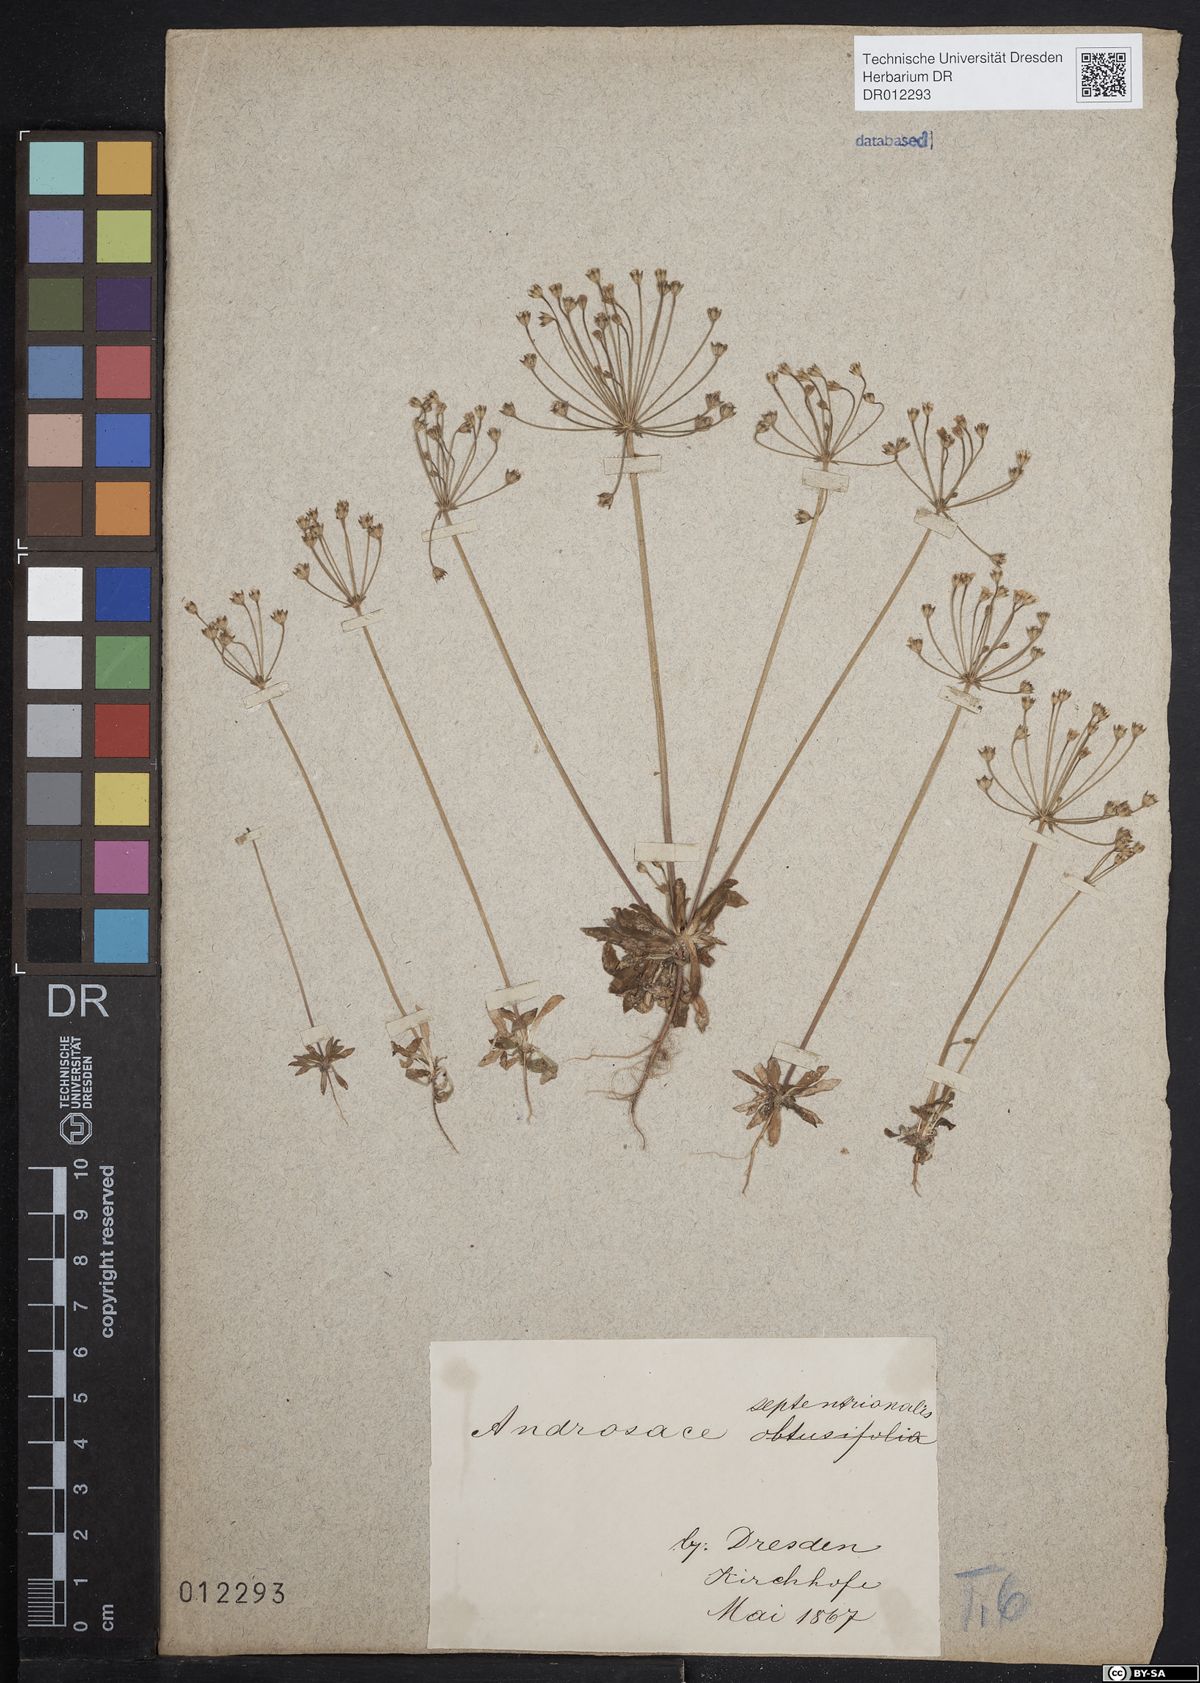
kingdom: Plantae
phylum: Tracheophyta
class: Magnoliopsida
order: Ericales
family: Primulaceae
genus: Androsace
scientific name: Androsace septentrionalis
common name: Hairy northern fairy-candelabra
